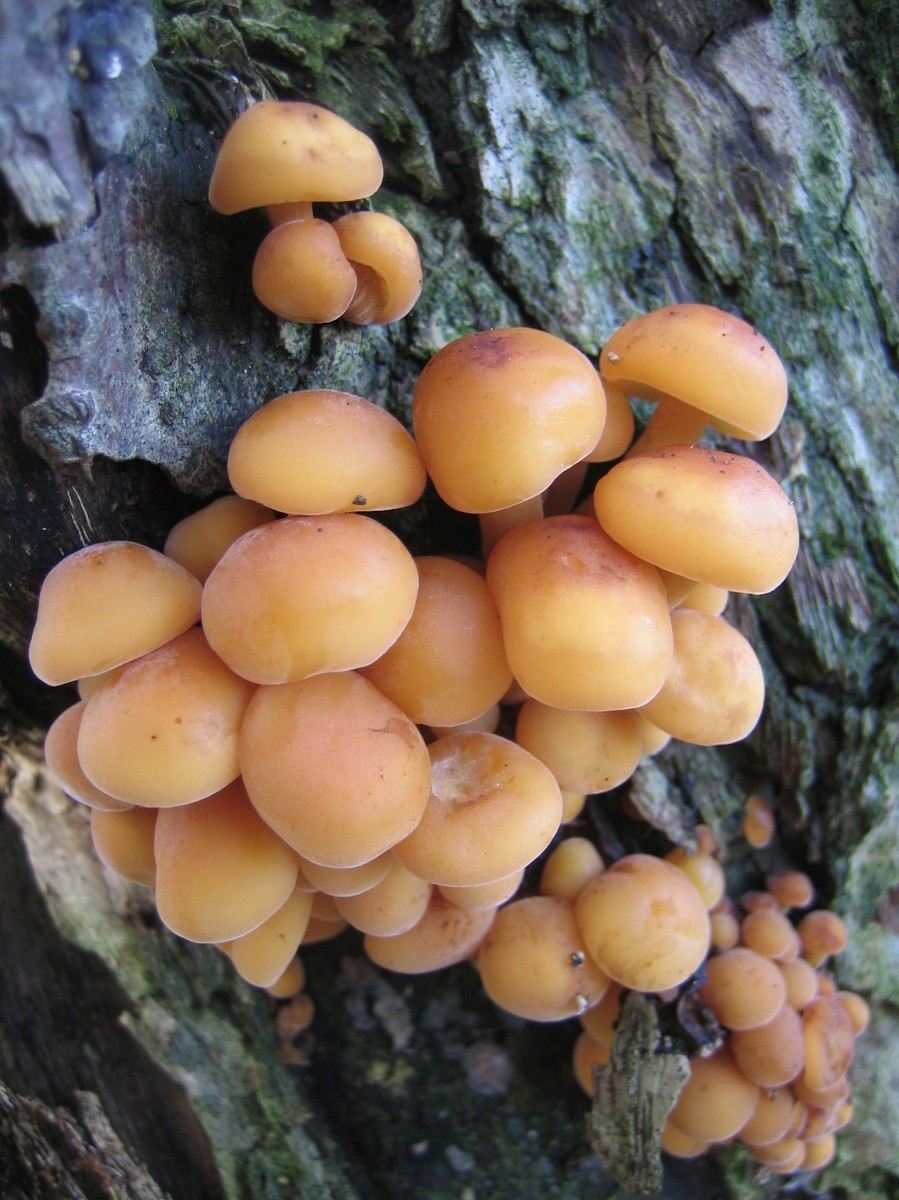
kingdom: Fungi
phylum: Basidiomycota
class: Agaricomycetes
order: Agaricales
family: Physalacriaceae
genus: Flammulina
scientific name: Flammulina velutipes
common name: gul fløjlsfod
